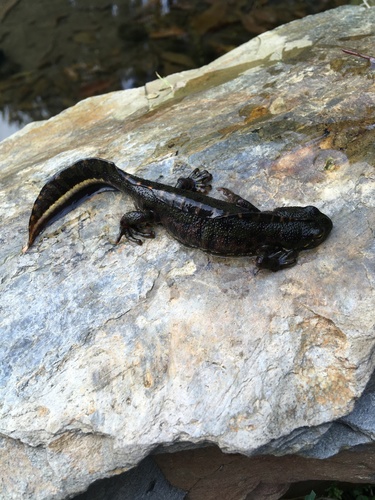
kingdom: Animalia
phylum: Chordata
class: Amphibia
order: Caudata
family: Salamandridae
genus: Triturus
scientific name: Triturus marmoratus
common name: Marbled newt
